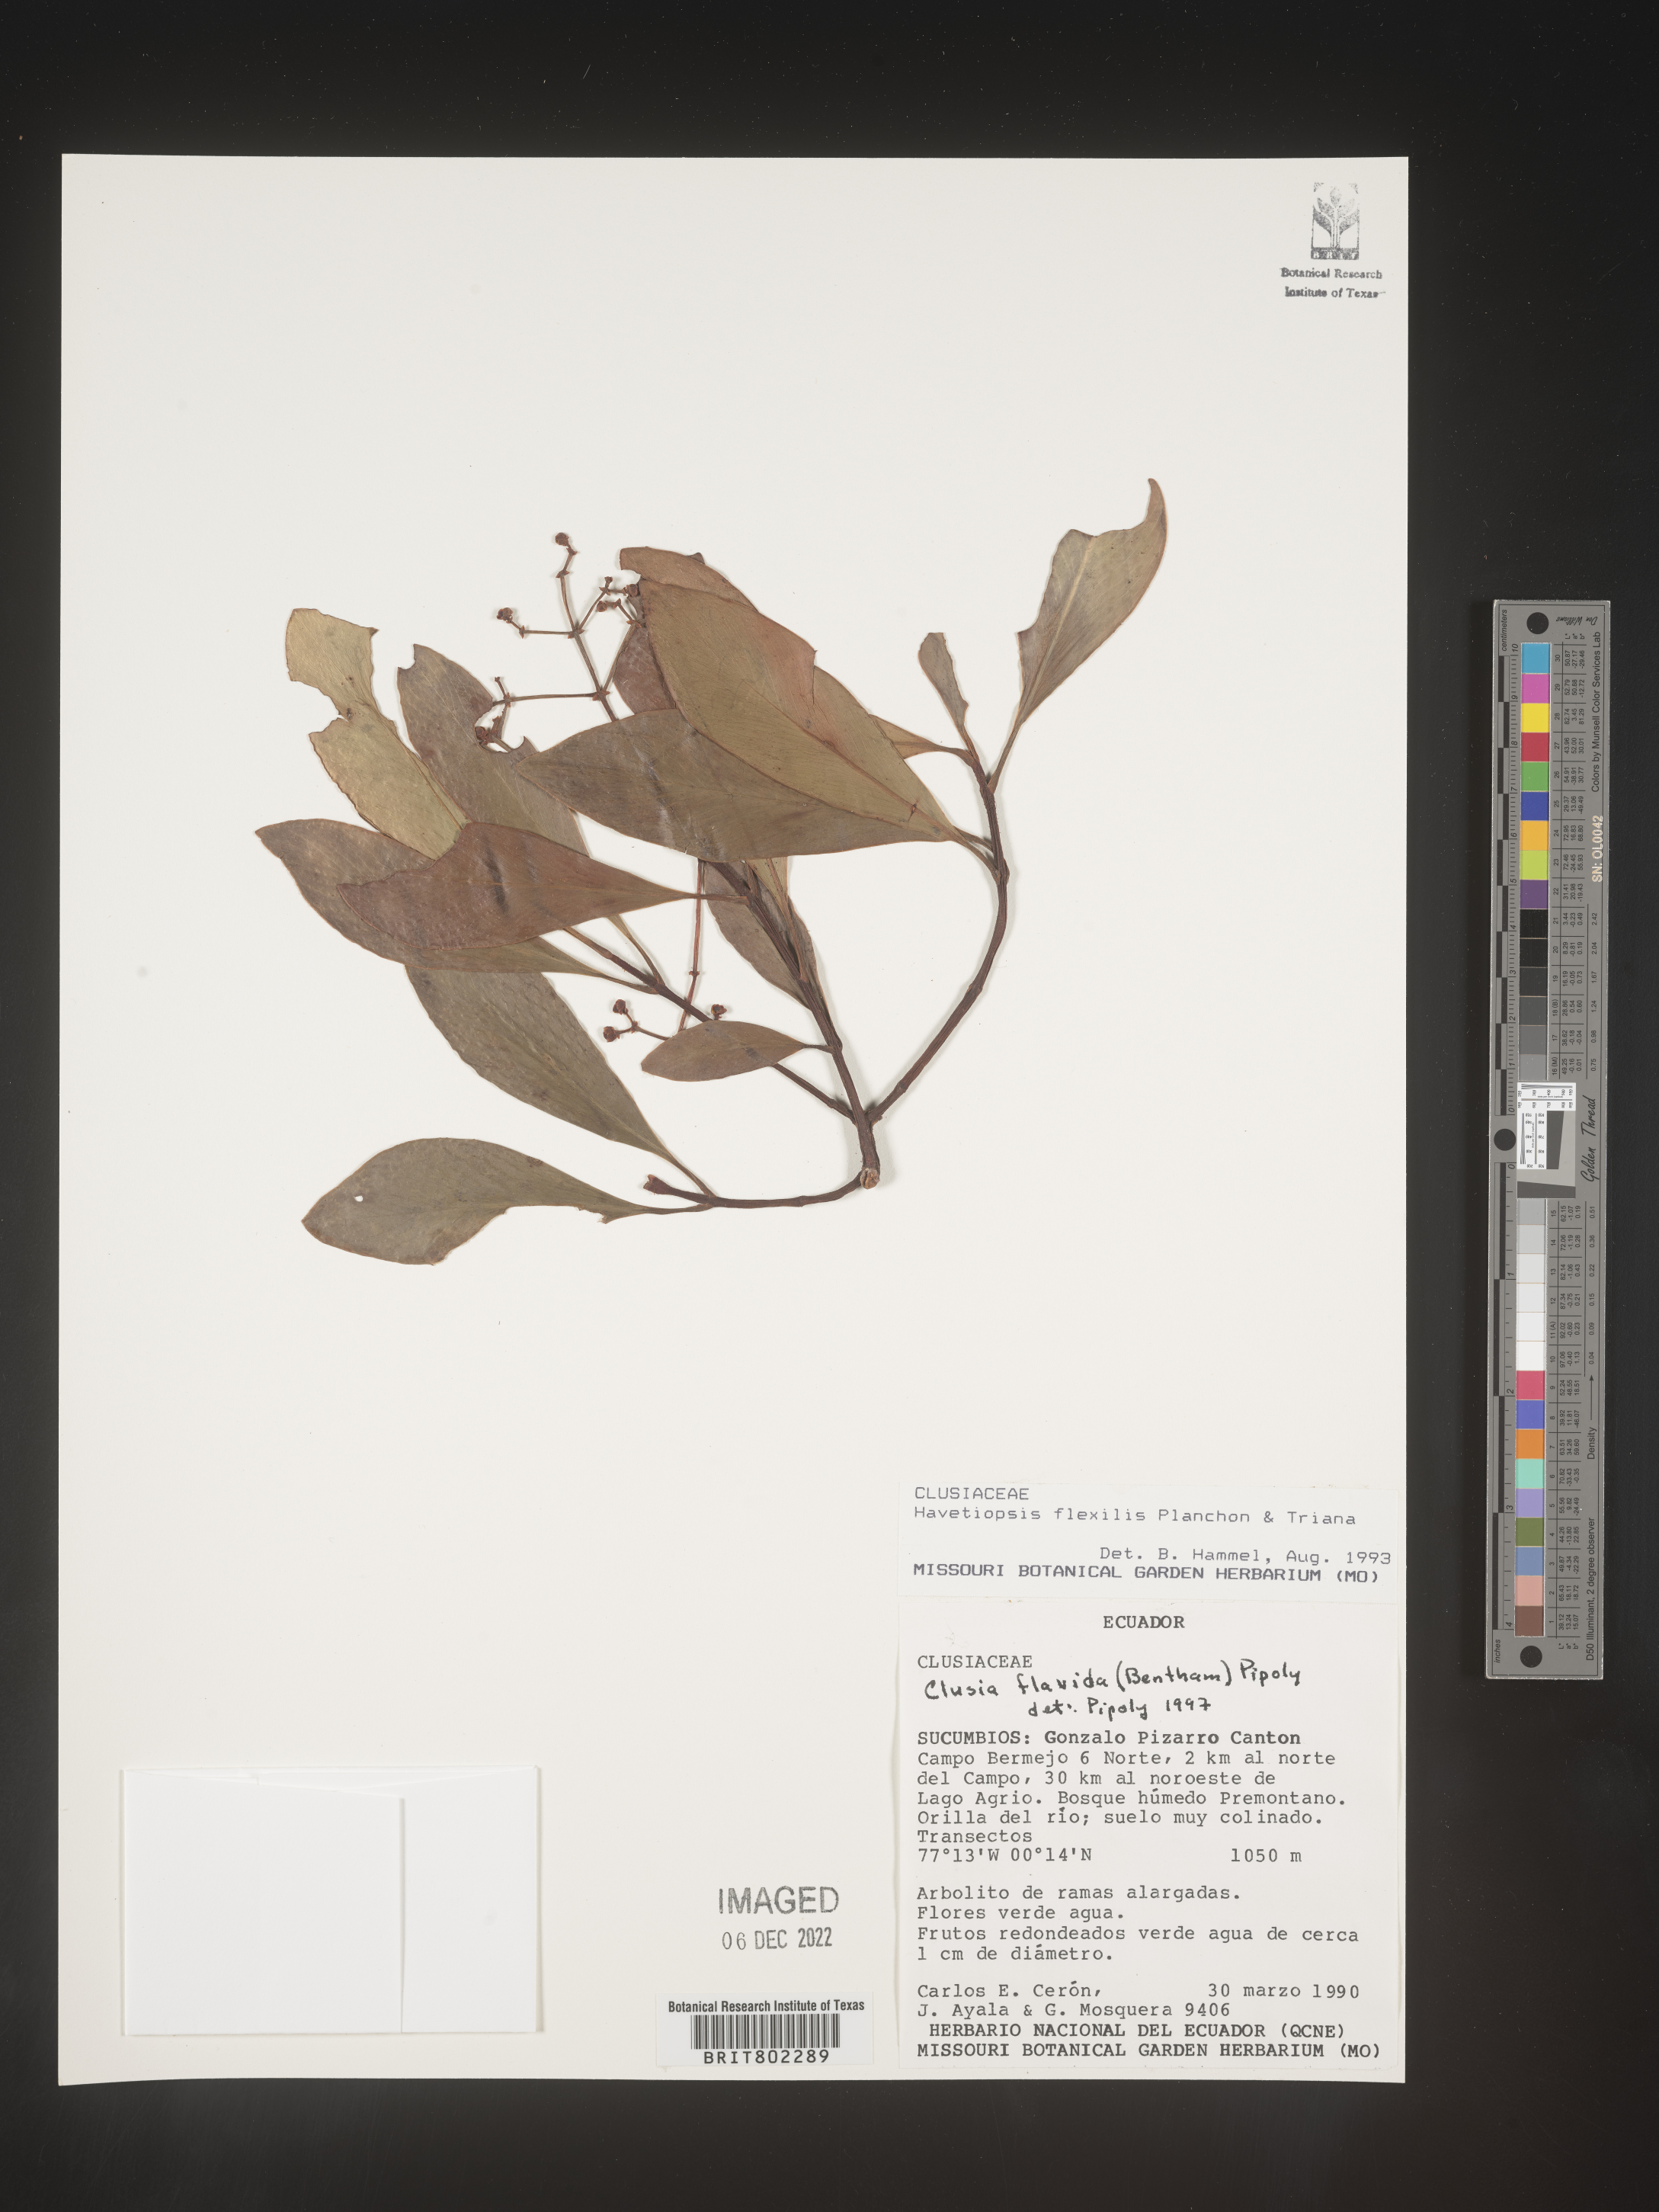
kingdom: Plantae
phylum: Tracheophyta
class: Magnoliopsida
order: Malpighiales
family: Clusiaceae
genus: Clusia
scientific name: Clusia flavida
